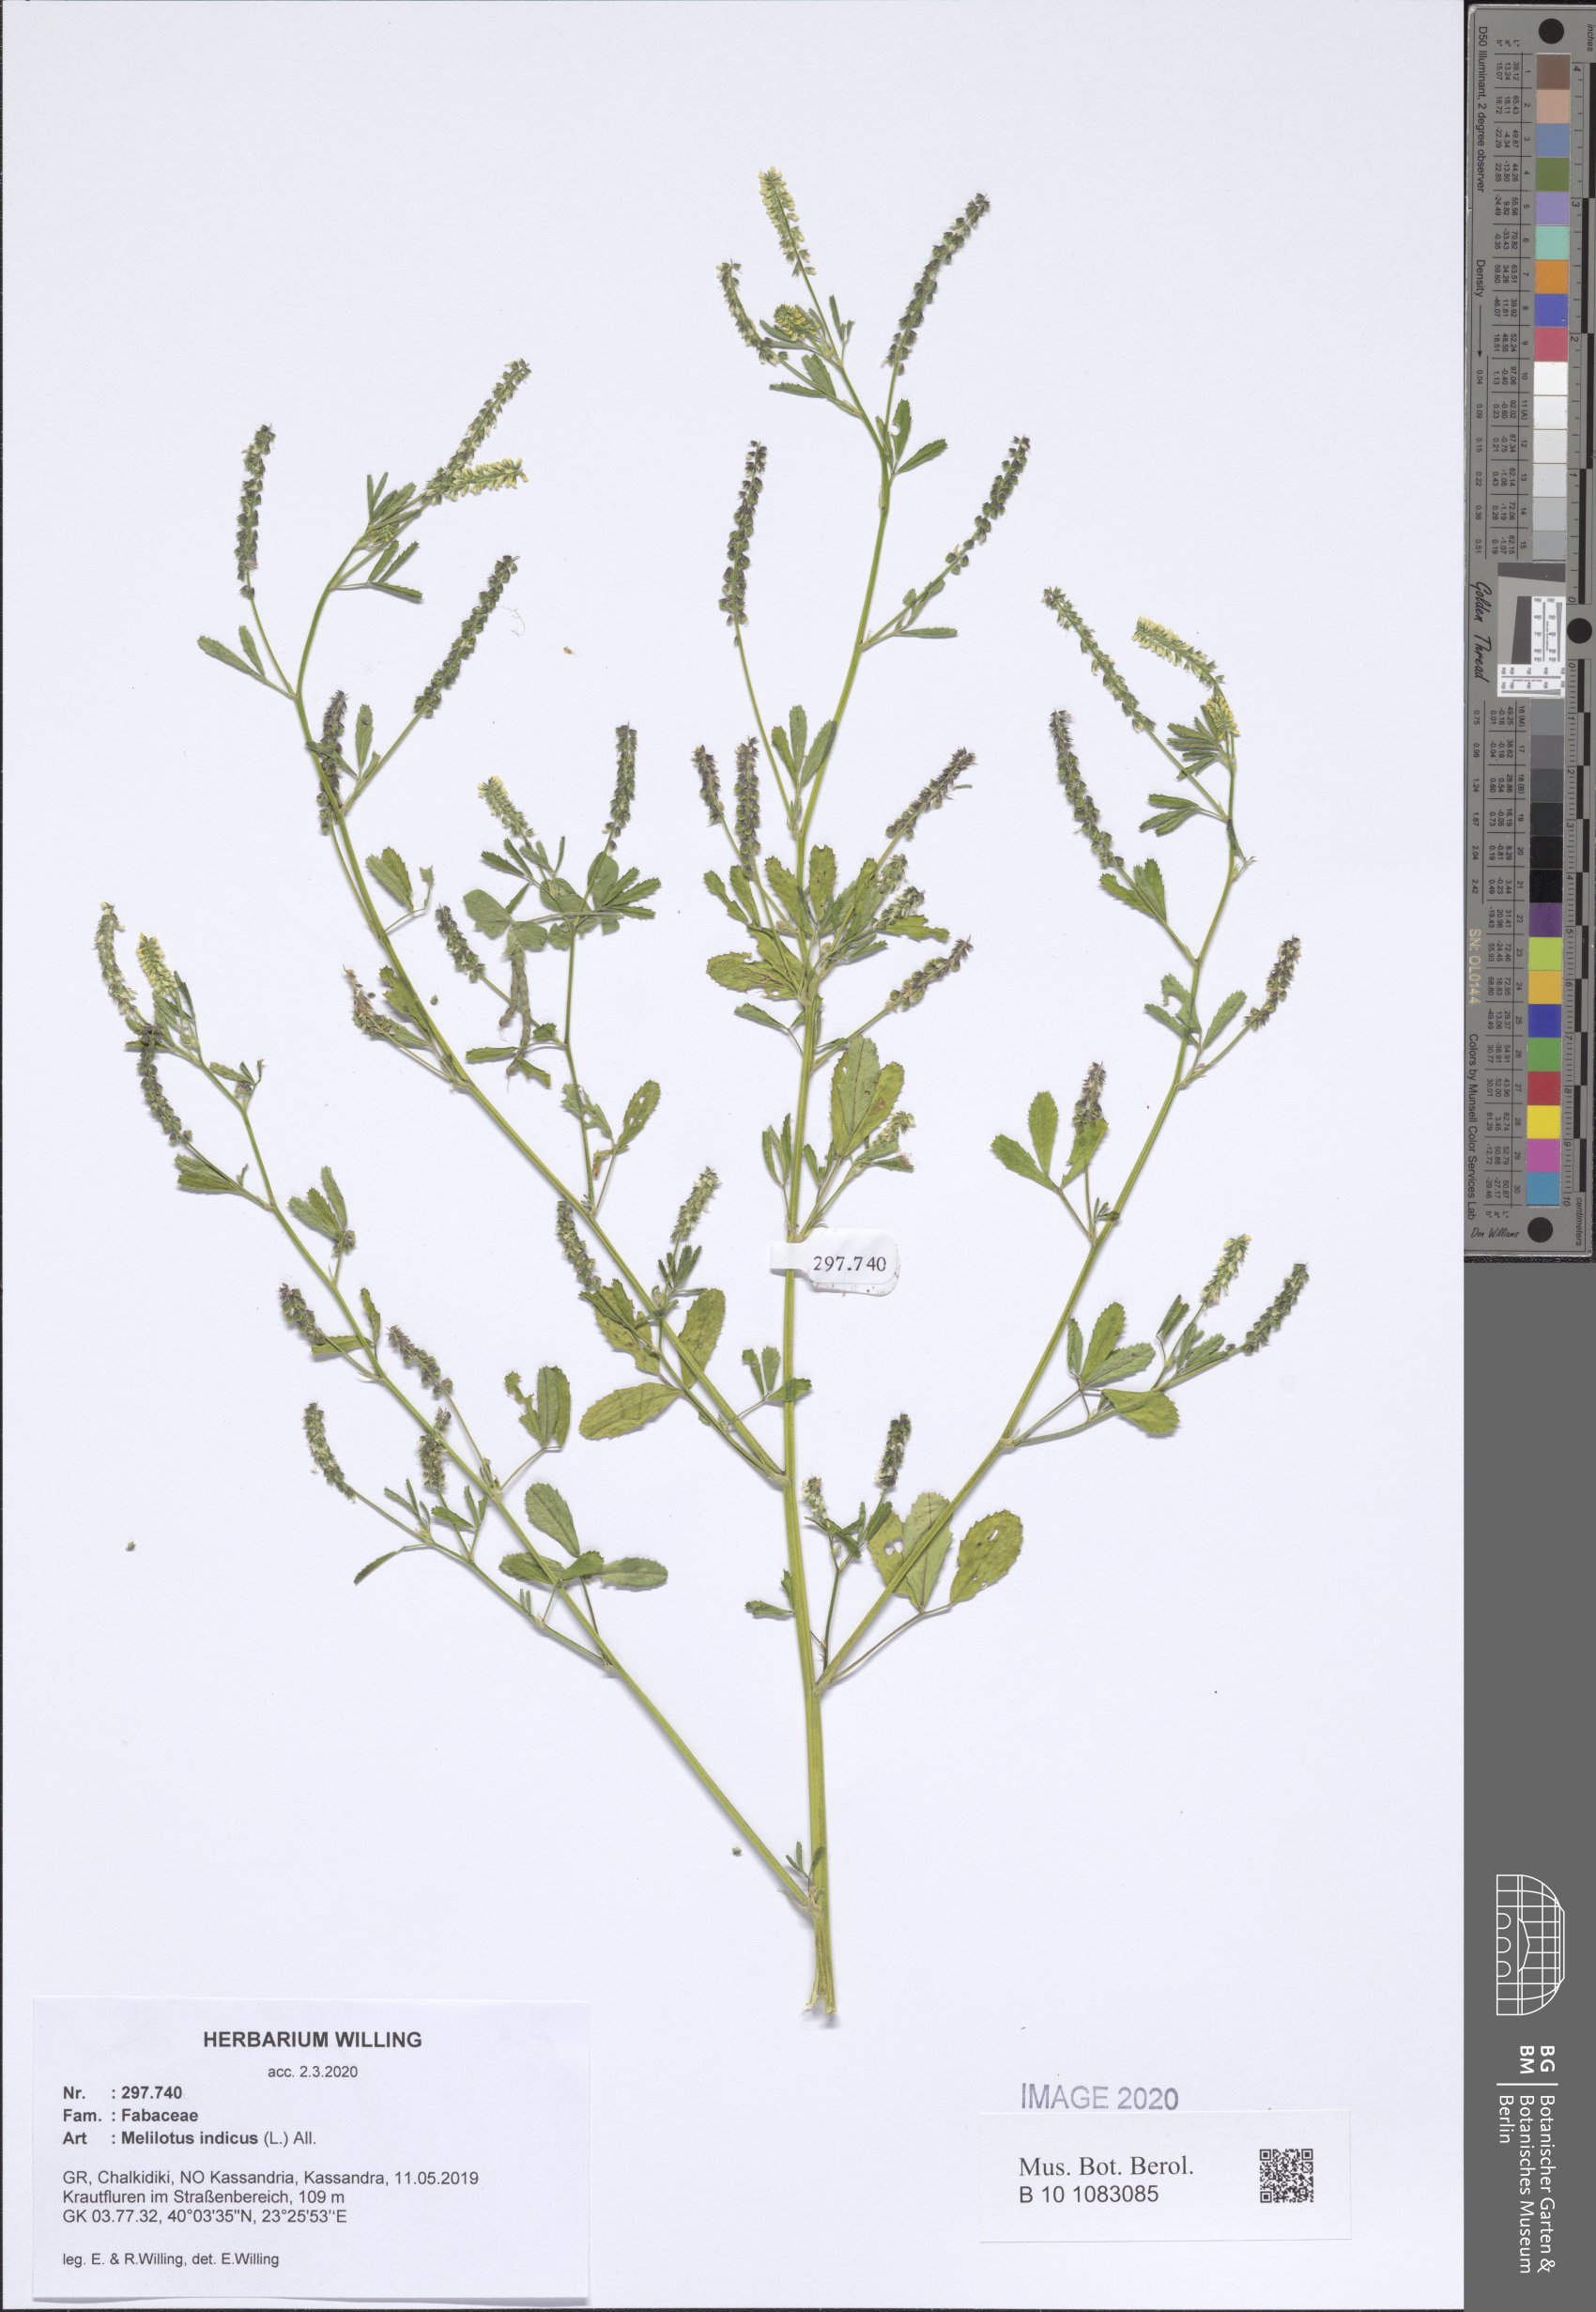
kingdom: Plantae
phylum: Tracheophyta
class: Magnoliopsida
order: Fabales
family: Fabaceae
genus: Melilotus
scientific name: Melilotus indicus
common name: Small melilot
